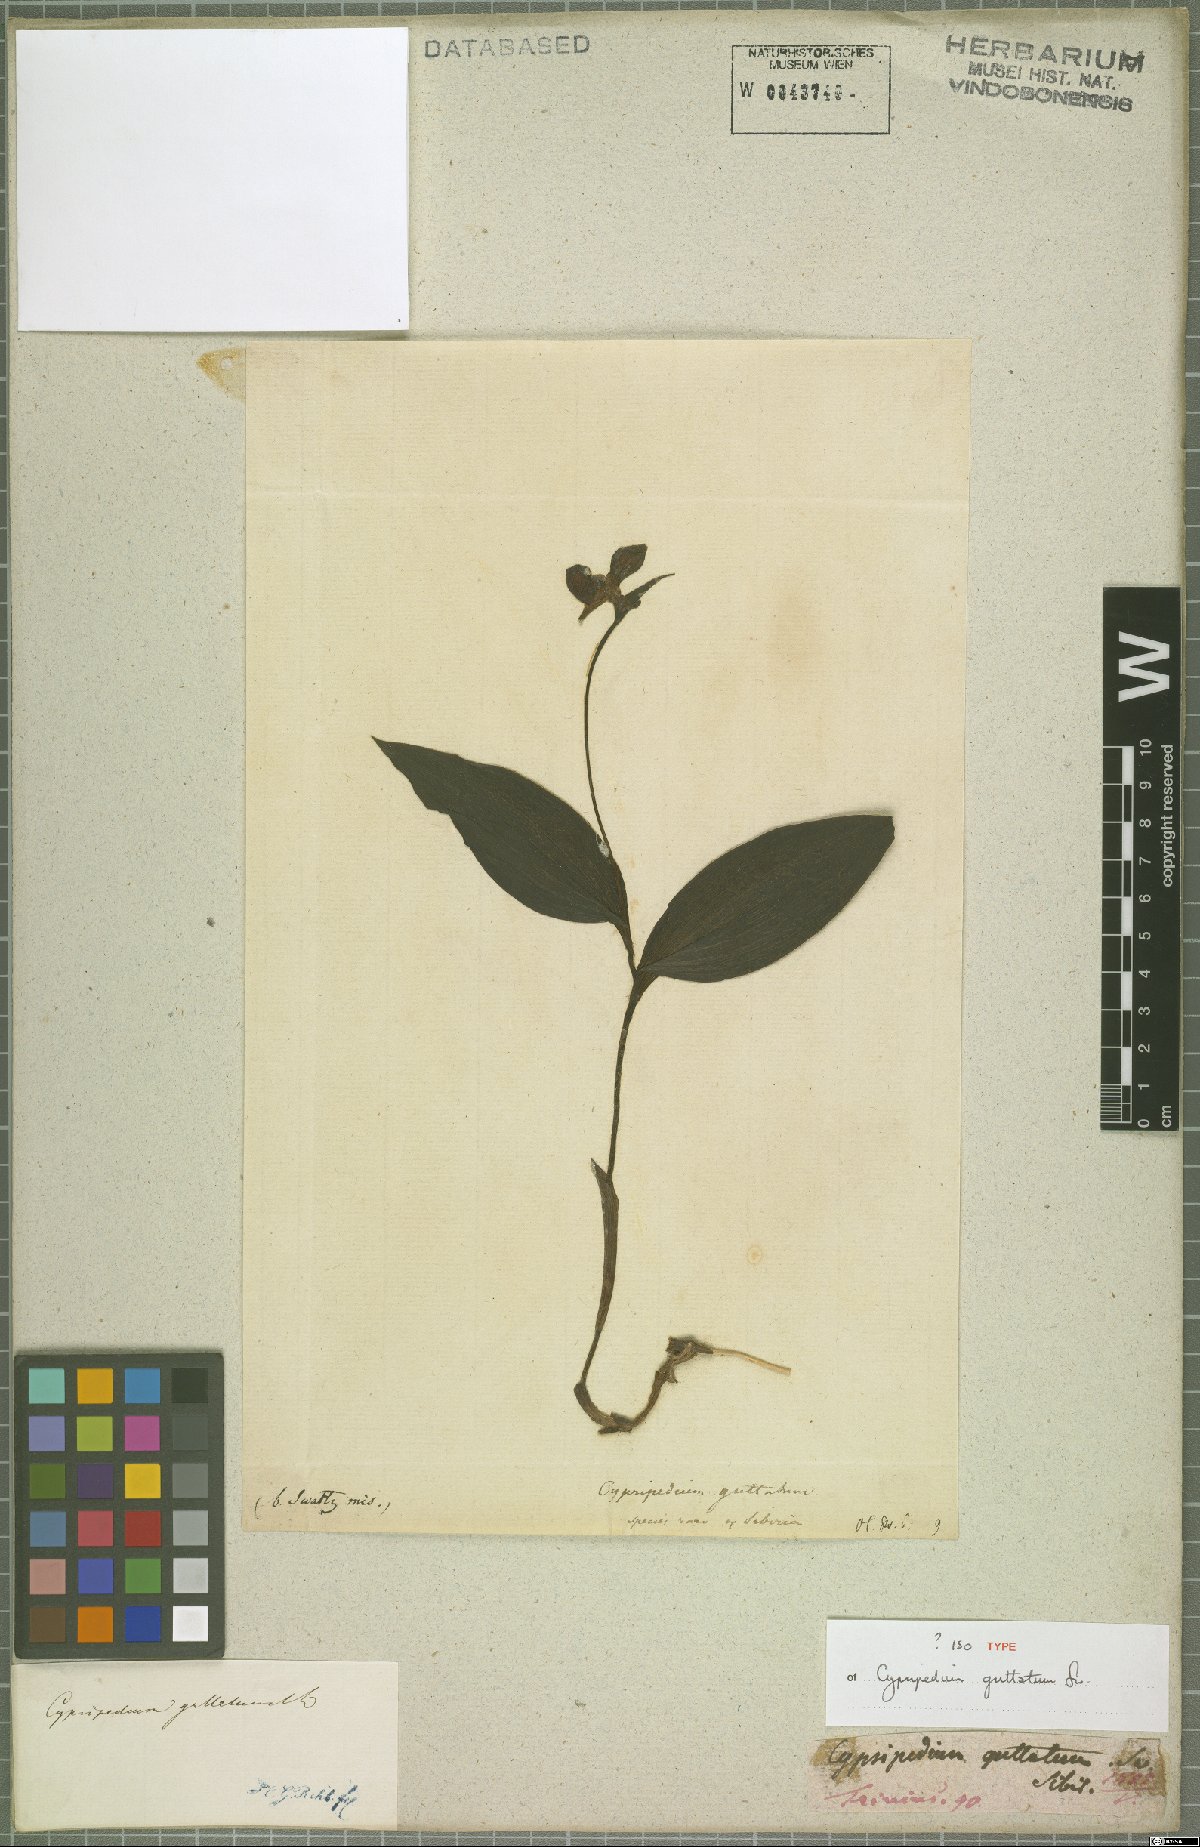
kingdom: Plantae
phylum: Tracheophyta
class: Liliopsida
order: Asparagales
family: Orchidaceae
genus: Cypripedium
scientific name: Cypripedium guttatum
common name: Pink lady slipper
